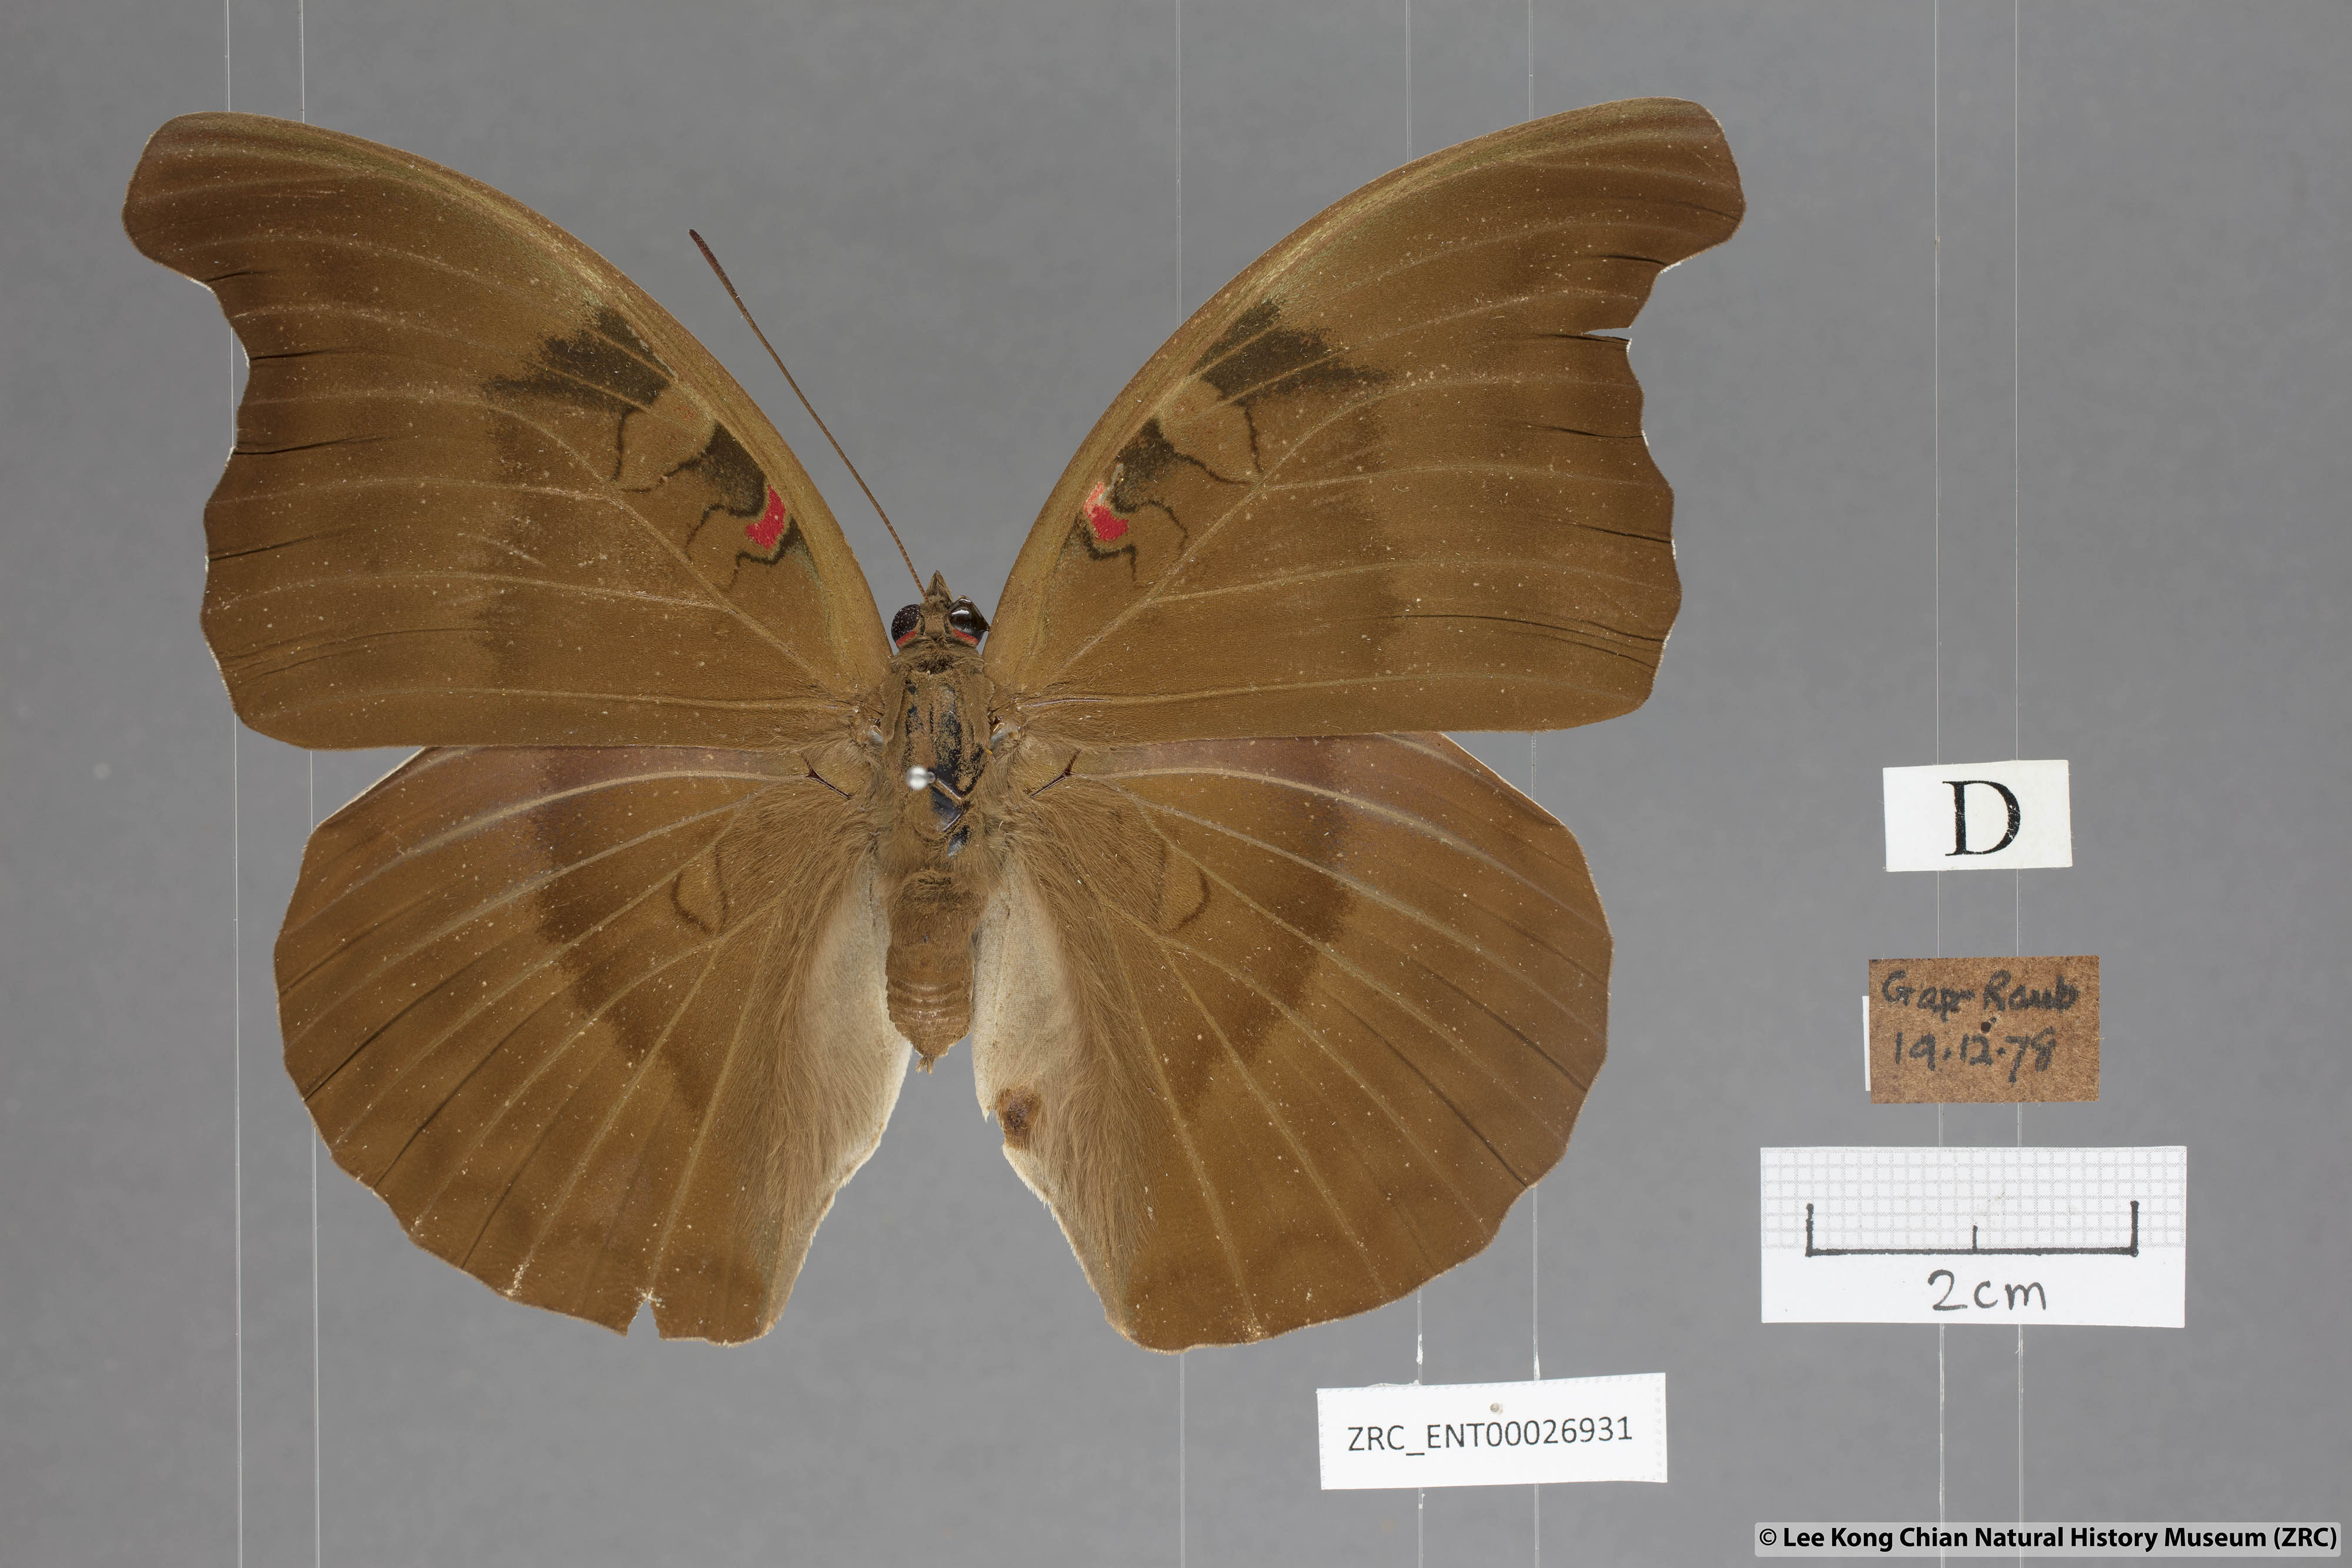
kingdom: Animalia
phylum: Arthropoda
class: Insecta
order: Lepidoptera
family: Nymphalidae
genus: Euthalia
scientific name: Euthalia Dophla evelina
